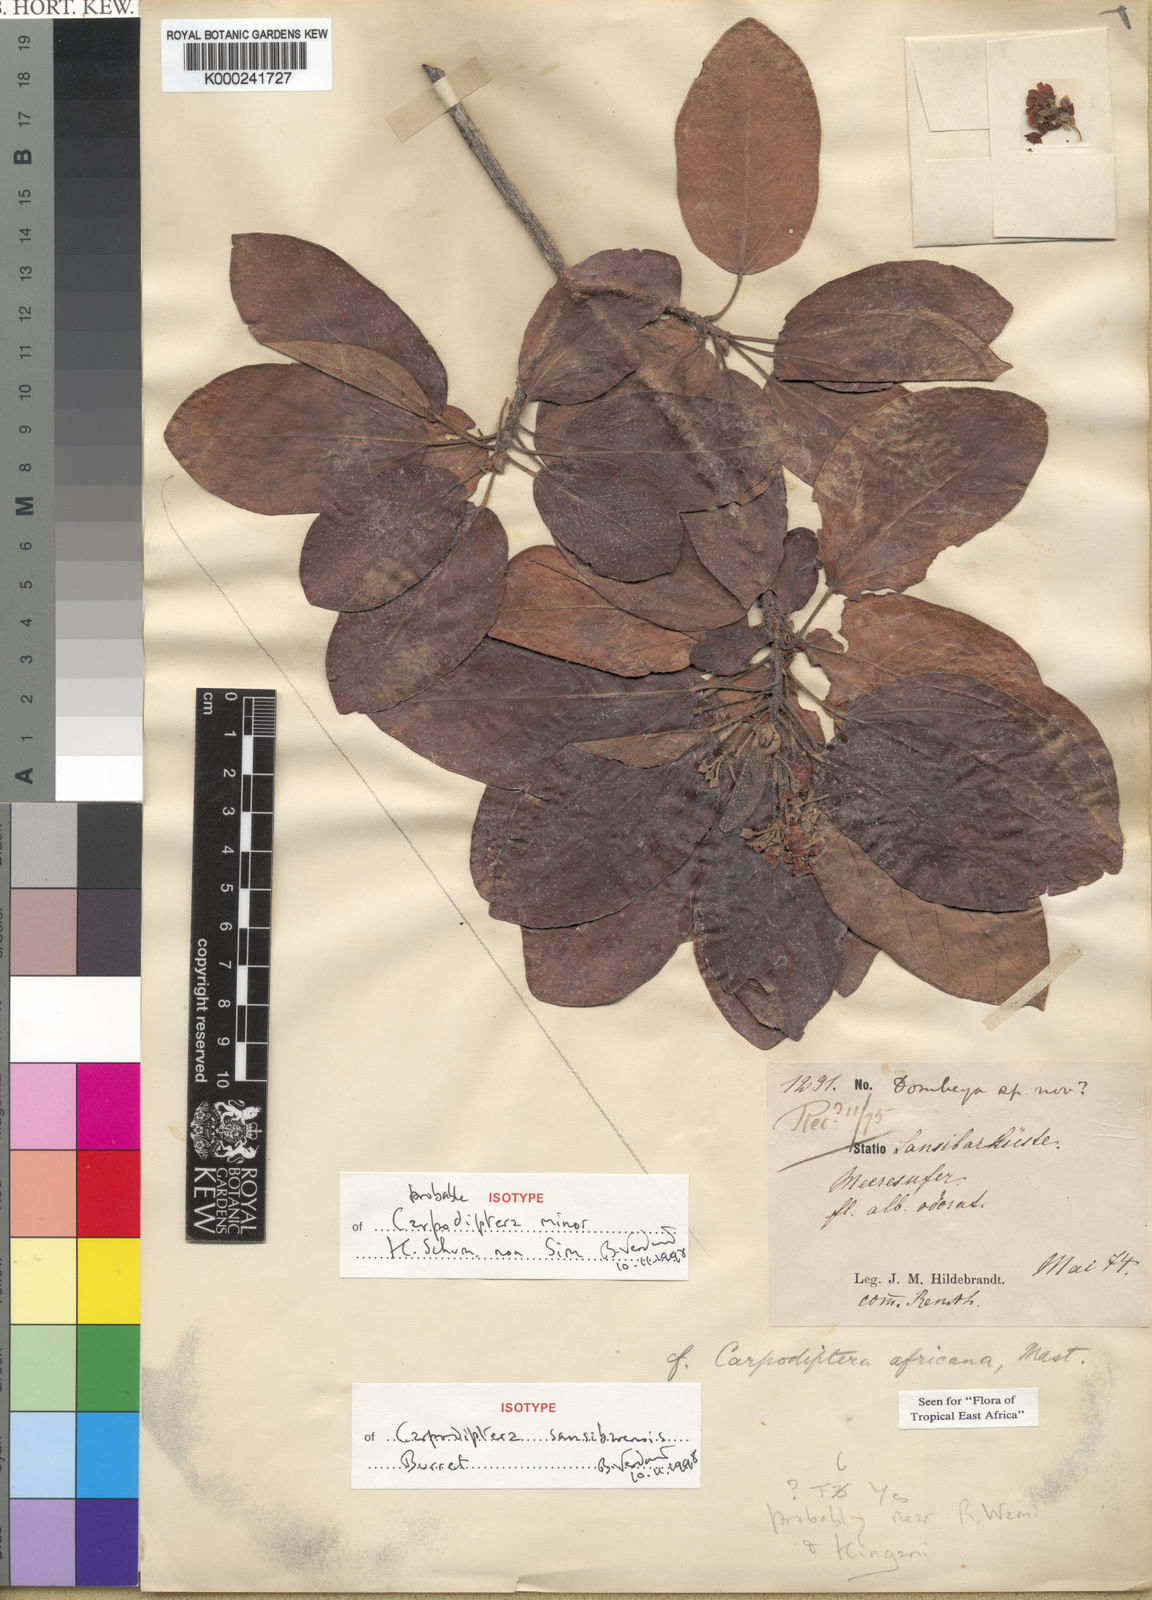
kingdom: Plantae
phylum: Tracheophyta
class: Magnoliopsida
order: Malvales
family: Malvaceae
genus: Berrya
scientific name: Berrya africana
